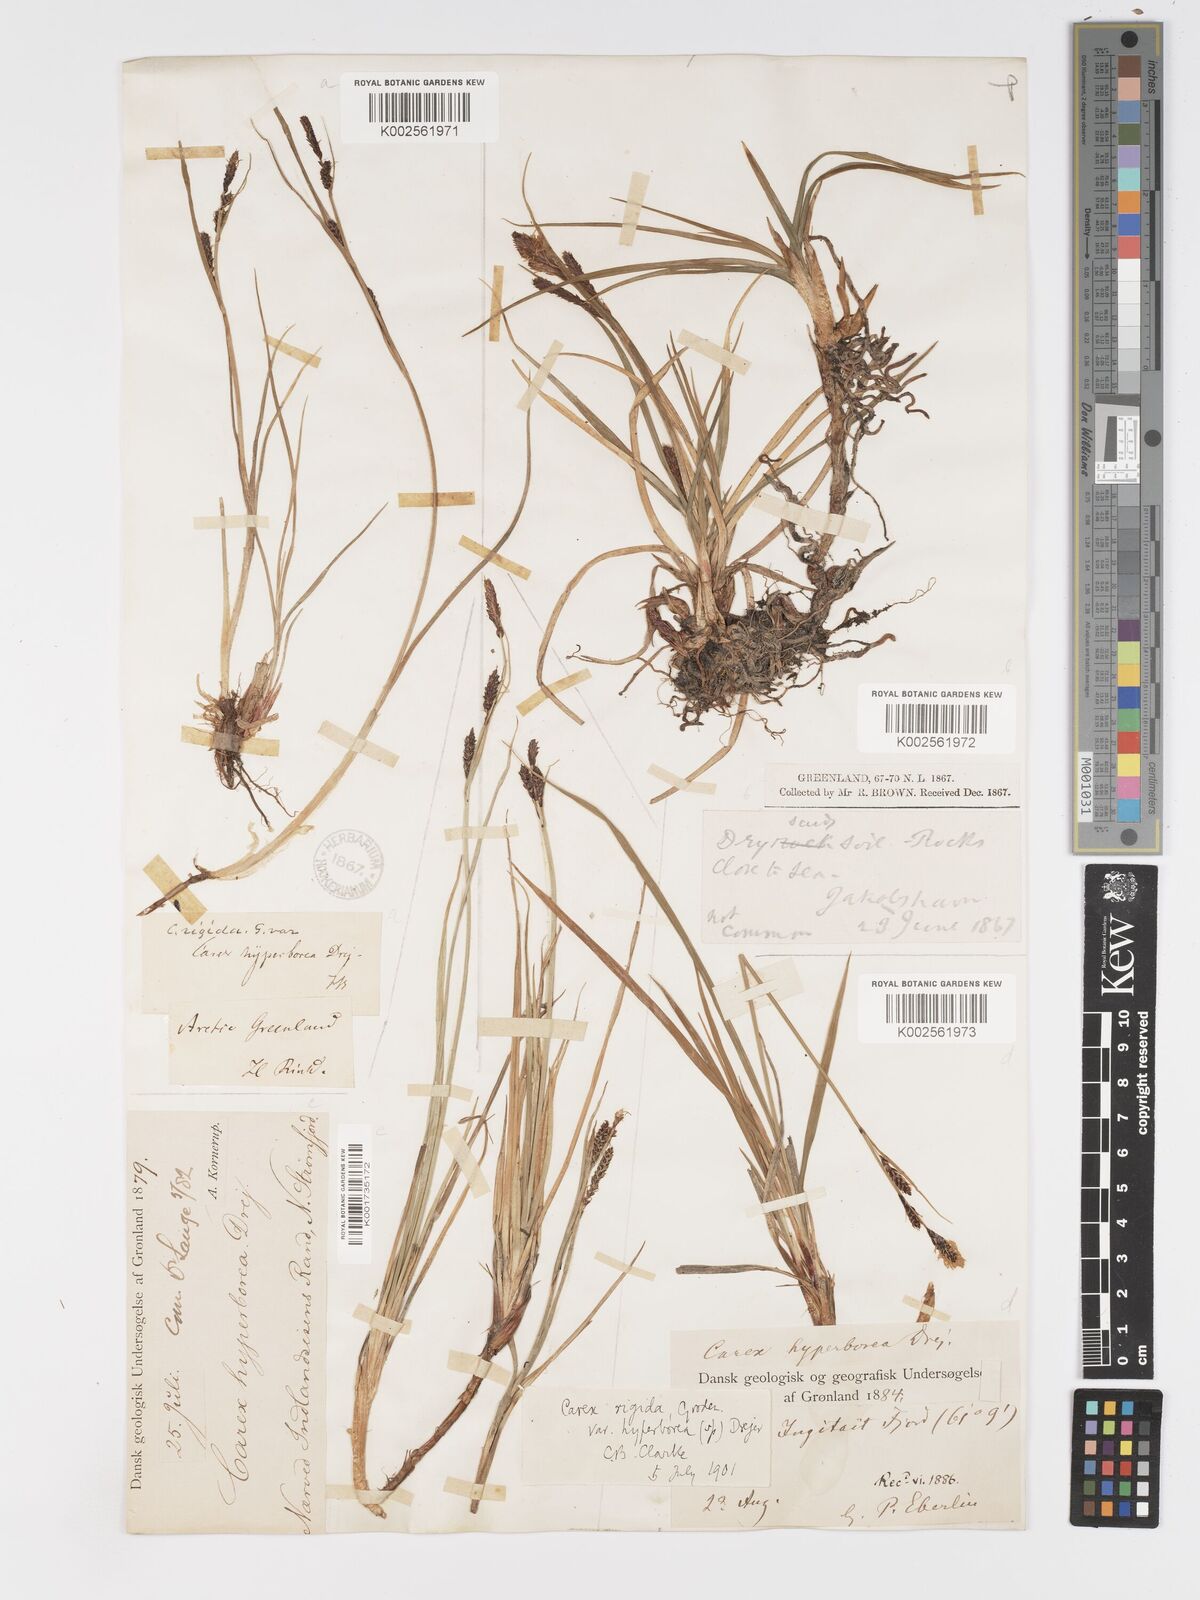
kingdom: Plantae
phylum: Tracheophyta
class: Liliopsida
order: Poales
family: Cyperaceae
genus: Carex
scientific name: Carex bigelowii
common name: Stiff sedge
